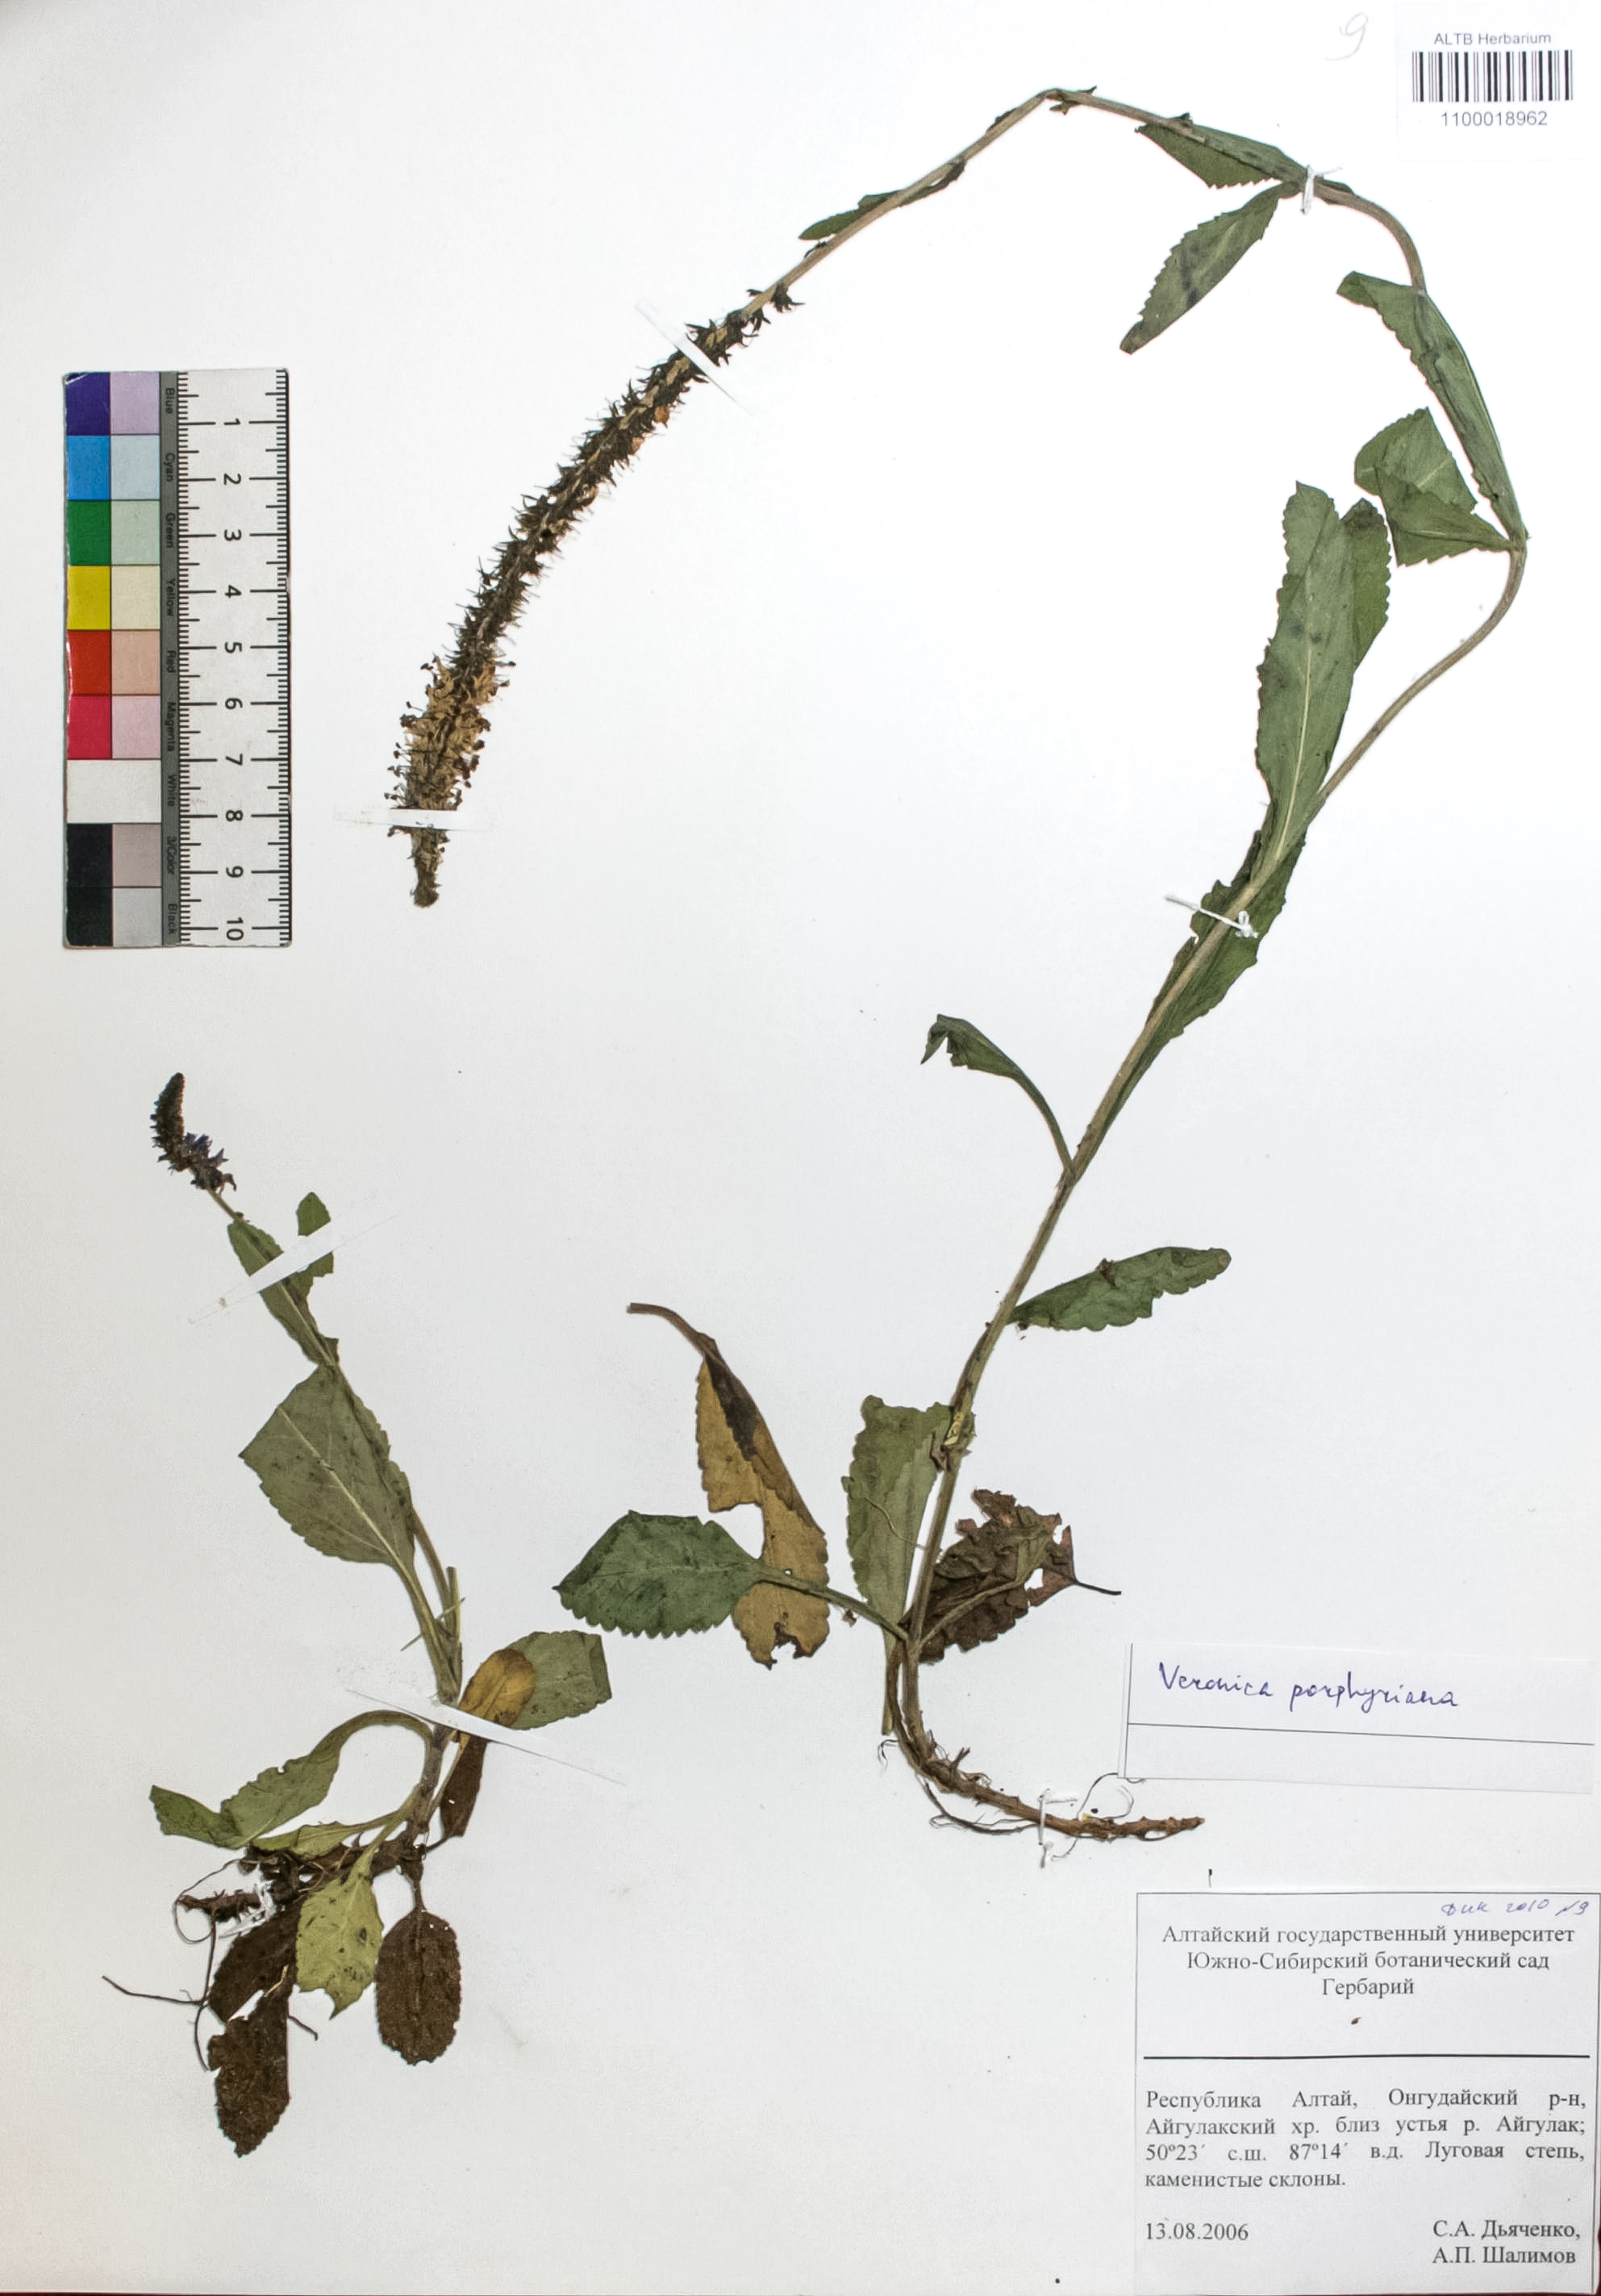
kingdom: Plantae
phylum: Tracheophyta
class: Magnoliopsida
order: Lamiales
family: Plantaginaceae
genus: Veronica
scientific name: Veronica porphyriana
